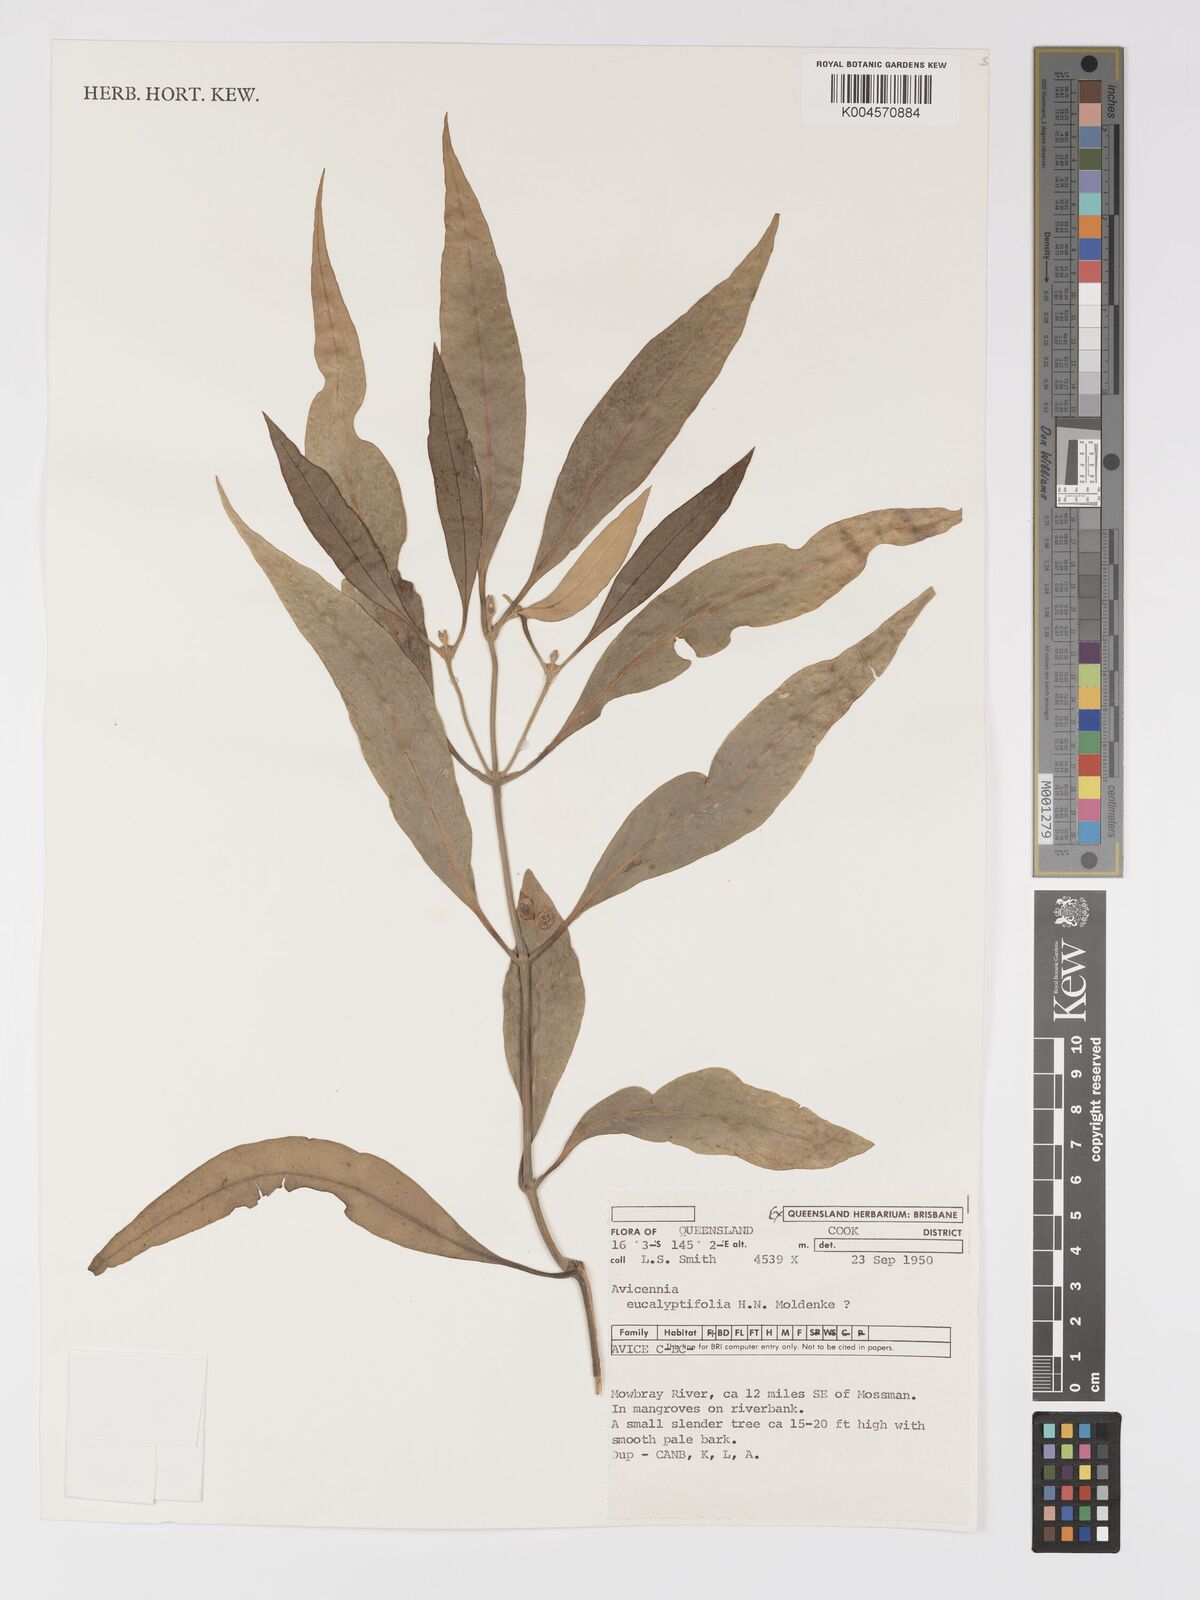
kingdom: Plantae
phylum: Tracheophyta
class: Magnoliopsida
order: Lamiales
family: Acanthaceae
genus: Avicennia
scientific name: Avicennia marina
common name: Gray mangrove
